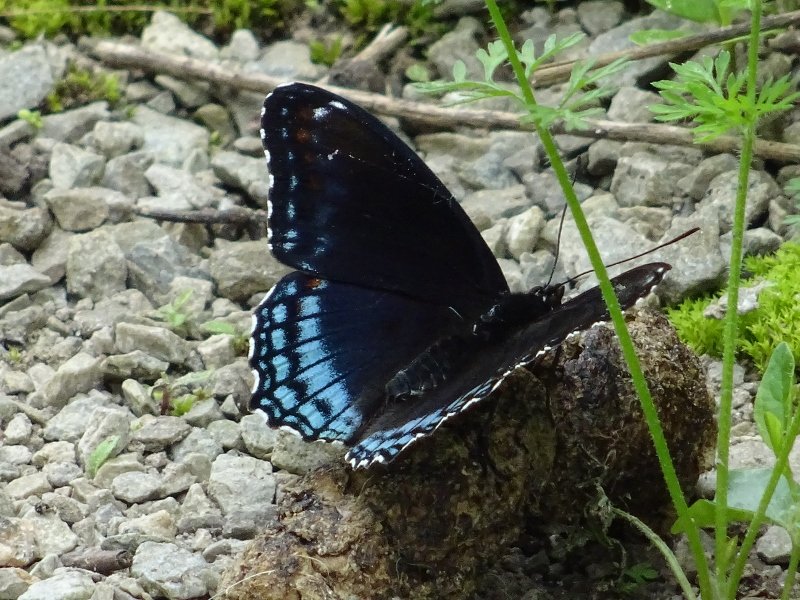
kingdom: Animalia
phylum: Arthropoda
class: Insecta
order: Lepidoptera
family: Nymphalidae
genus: Limenitis
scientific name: Limenitis astyanax
